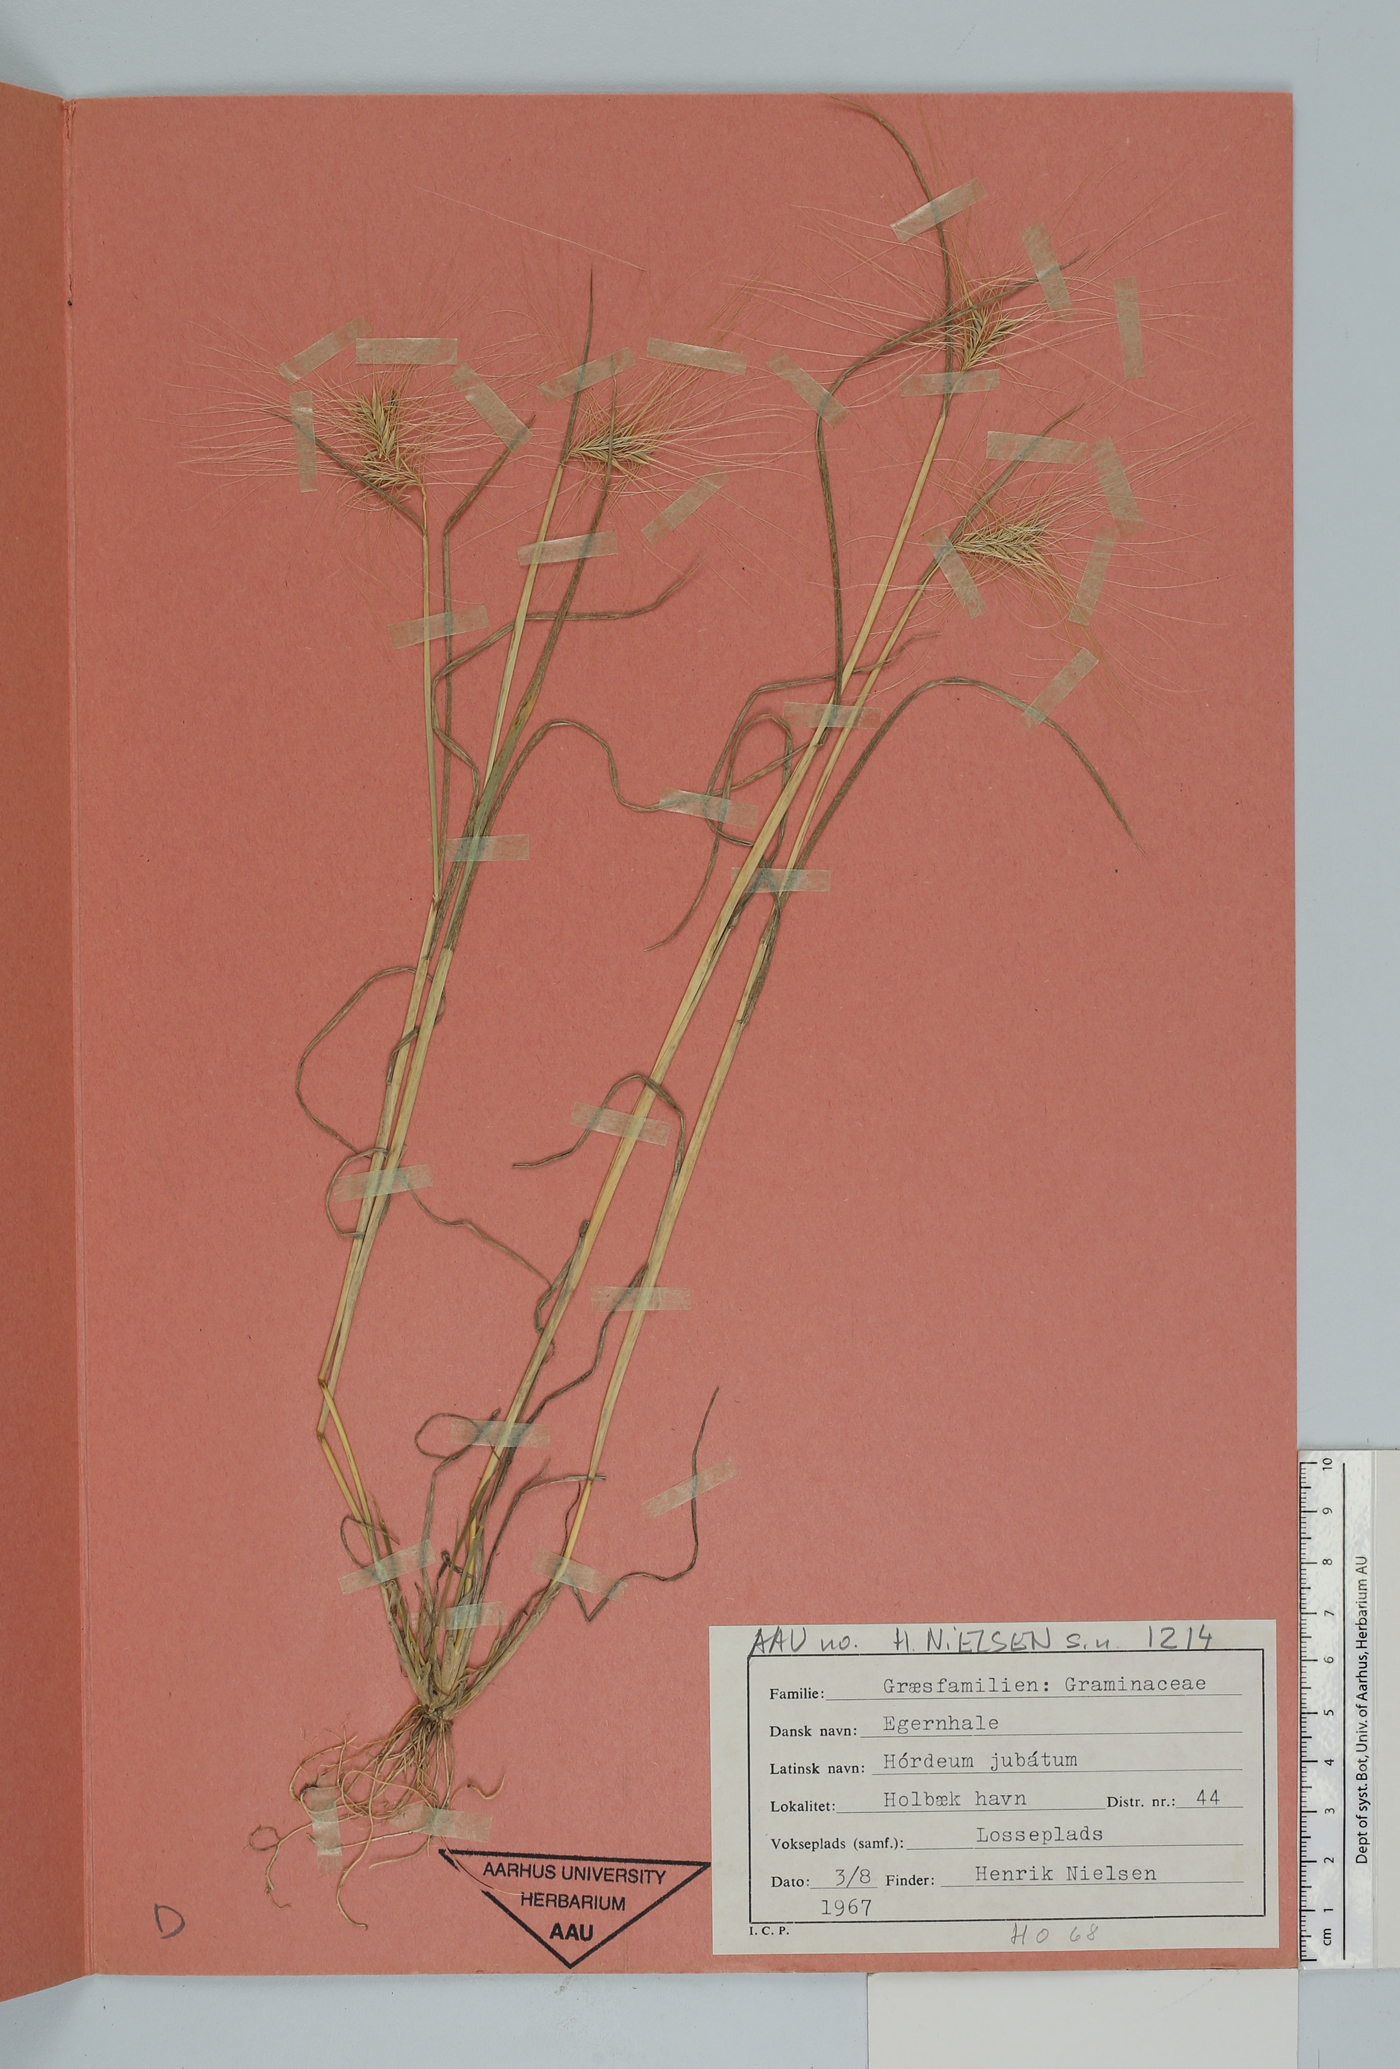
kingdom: Plantae
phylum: Tracheophyta
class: Liliopsida
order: Poales
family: Poaceae
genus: Hordeum
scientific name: Hordeum jubatum
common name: Foxtail barley
